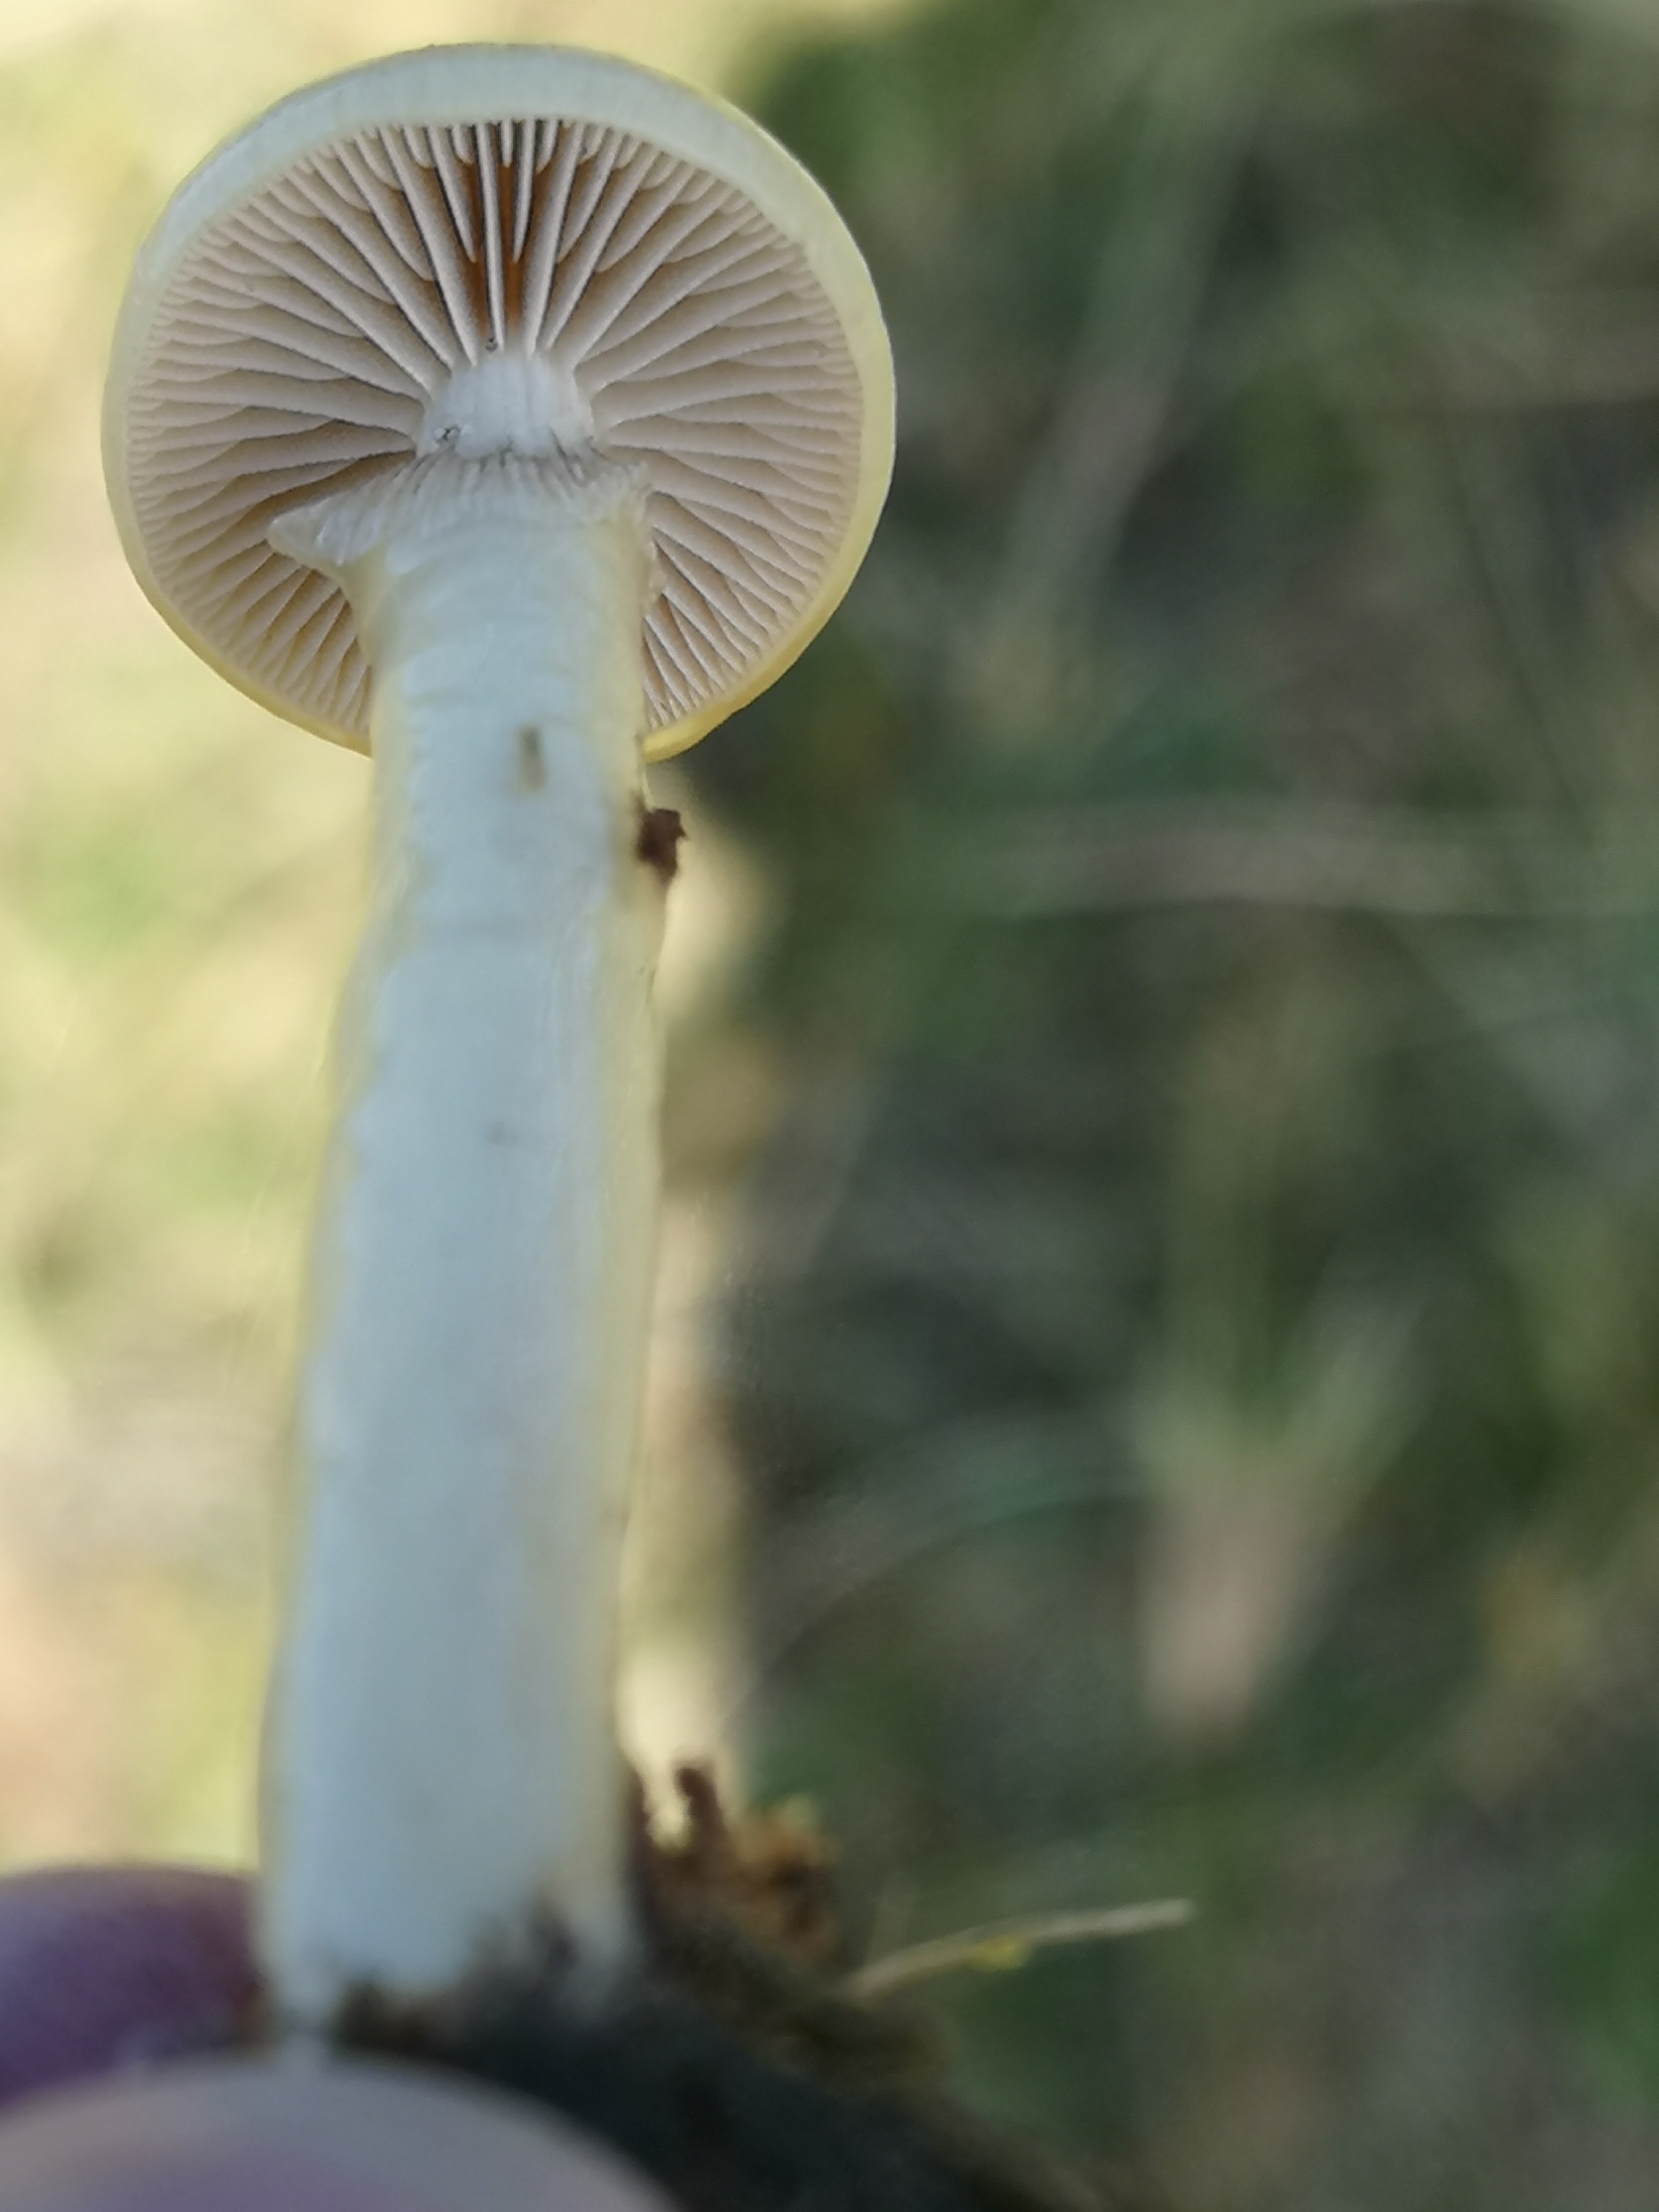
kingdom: Fungi
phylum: Basidiomycota
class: Agaricomycetes
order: Agaricales
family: Strophariaceae
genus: Protostropharia
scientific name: Protostropharia semiglobata
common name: halvkugleformet bredblad
